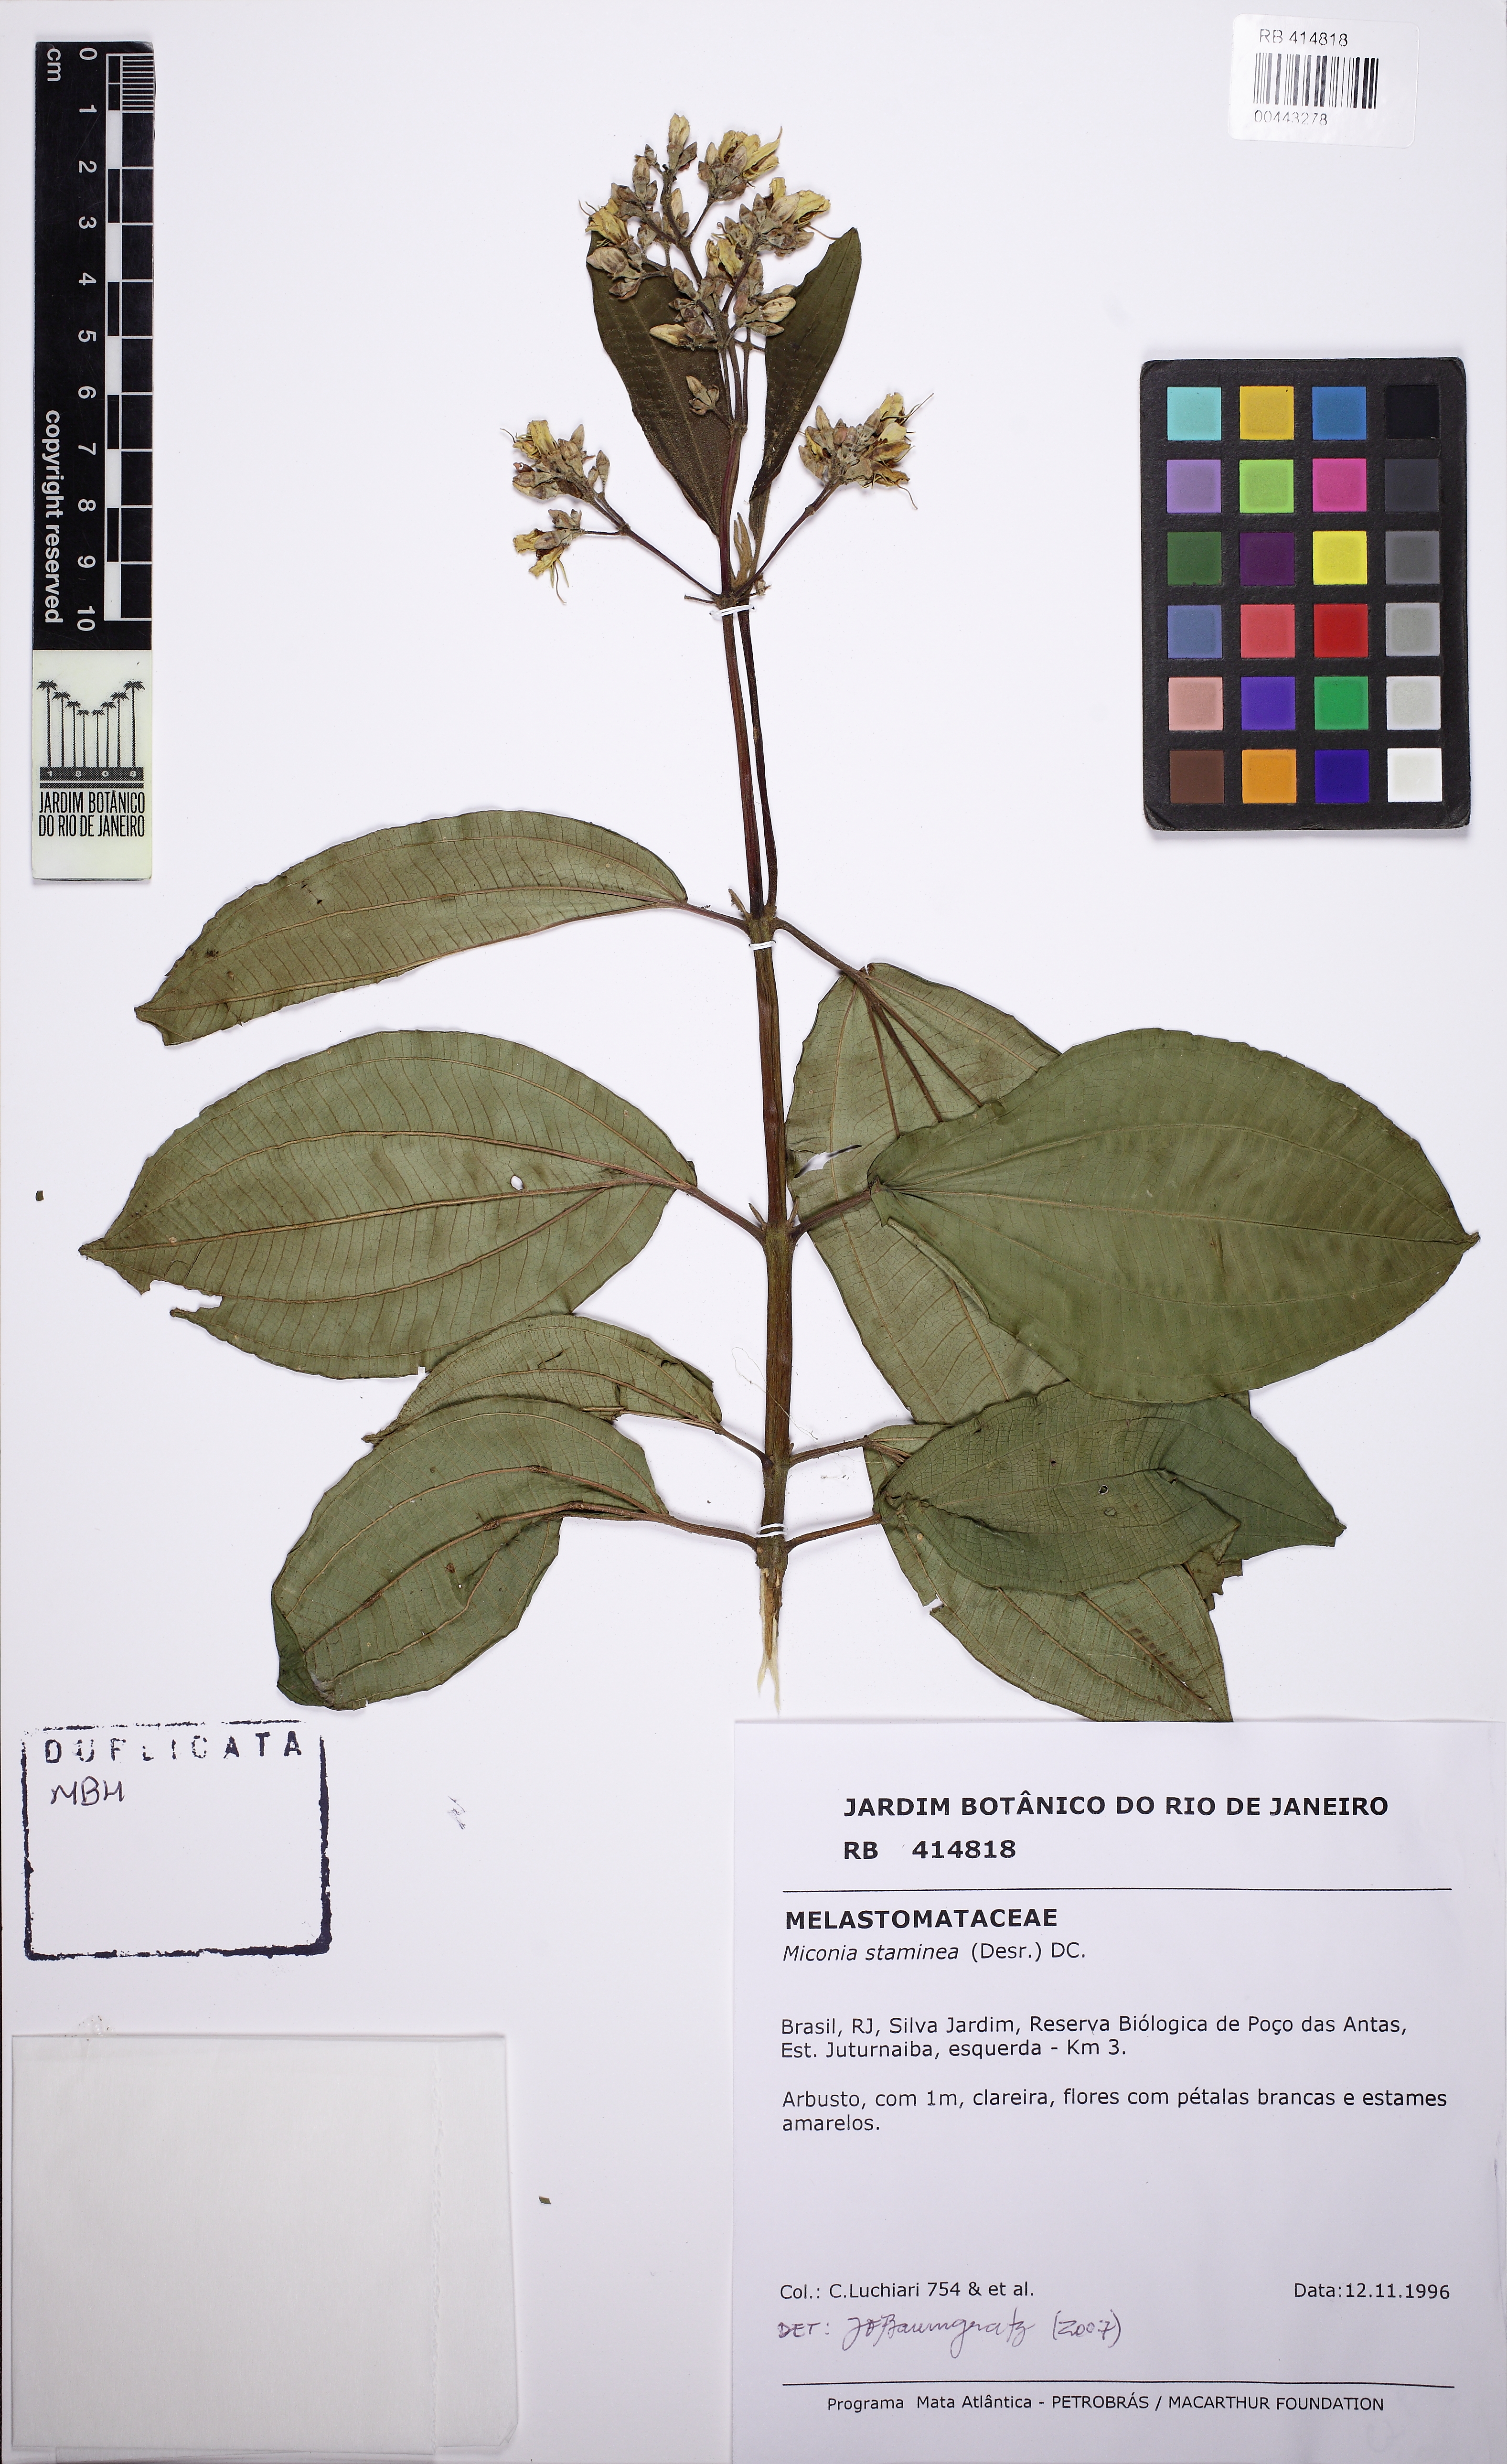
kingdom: Plantae
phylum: Tracheophyta
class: Magnoliopsida
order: Myrtales
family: Melastomataceae
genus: Miconia
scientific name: Miconia staminea
